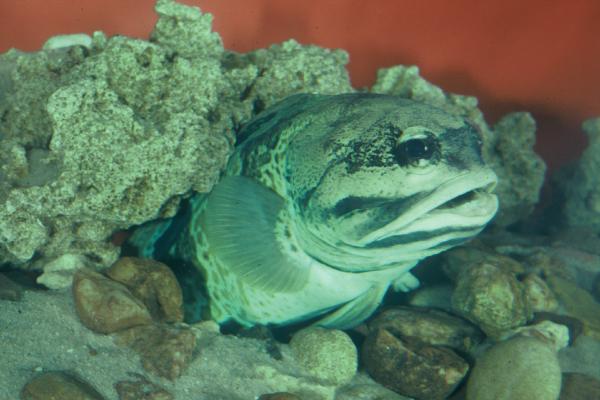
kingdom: Animalia
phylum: Chordata
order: Perciformes
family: Opistognathidae
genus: Opistognathus
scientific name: Opistognathus muscatensis
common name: Robust jawfish
